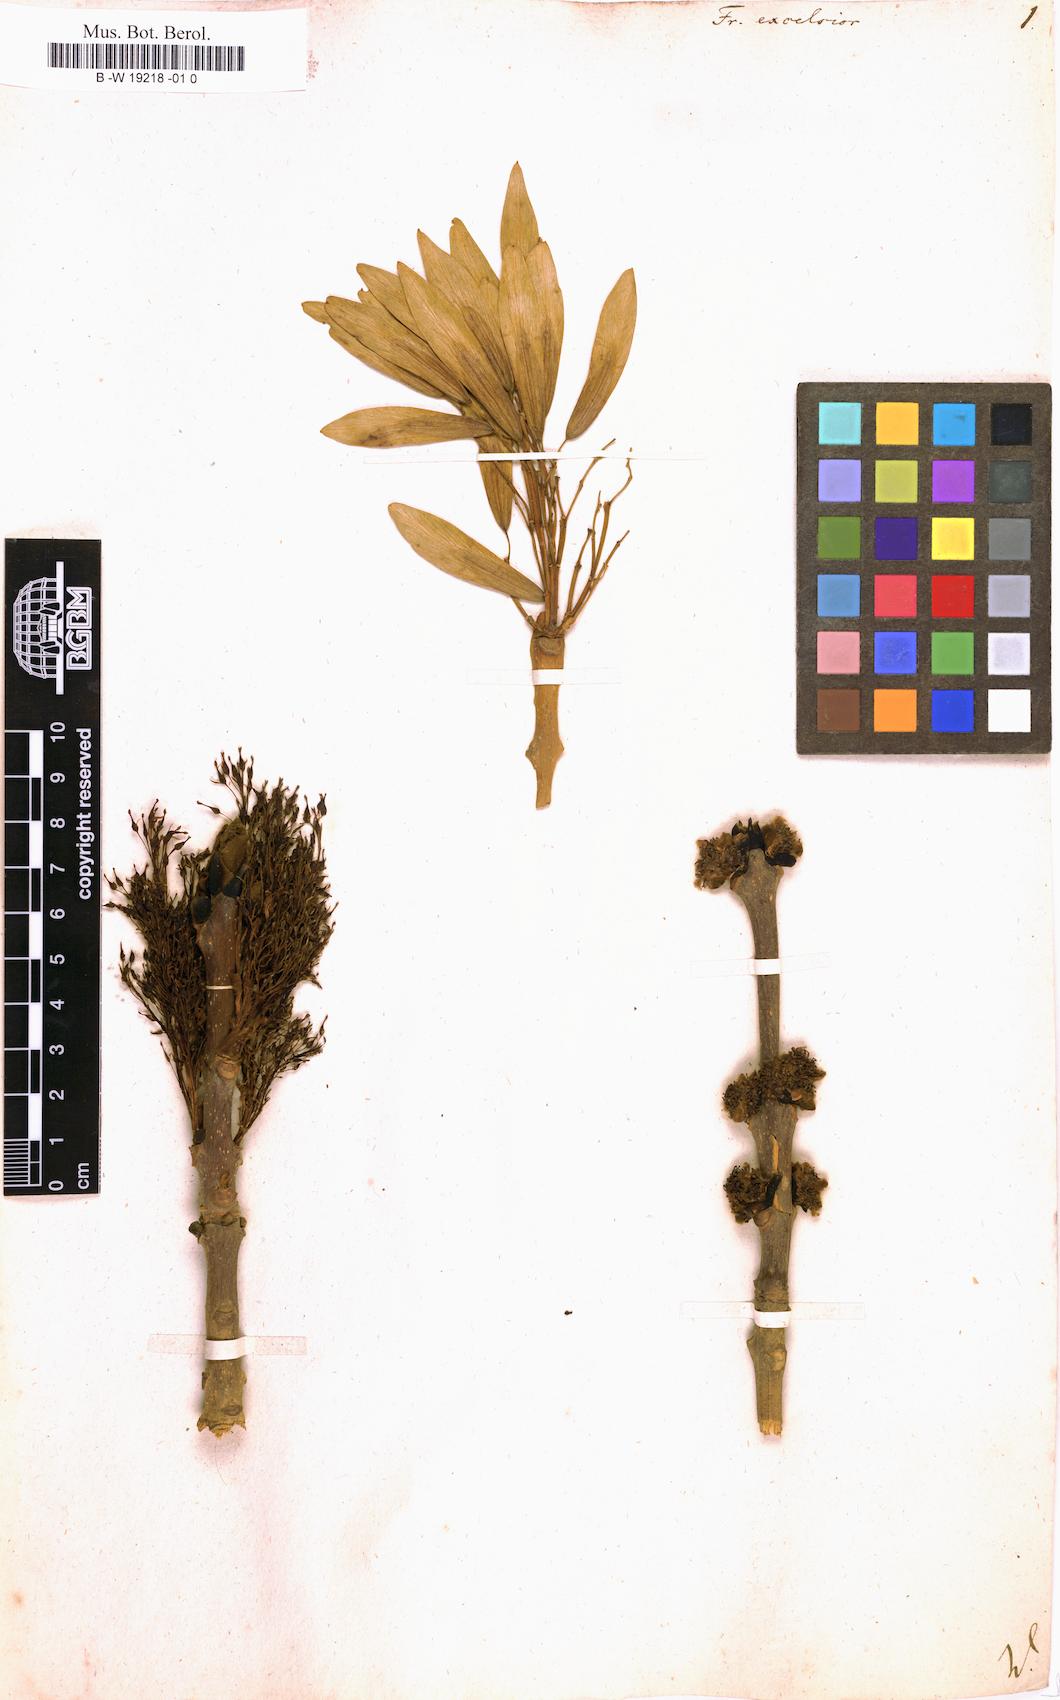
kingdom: Plantae
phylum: Tracheophyta
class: Magnoliopsida
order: Lamiales
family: Oleaceae
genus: Fraxinus
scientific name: Fraxinus excelsior
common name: European ash
